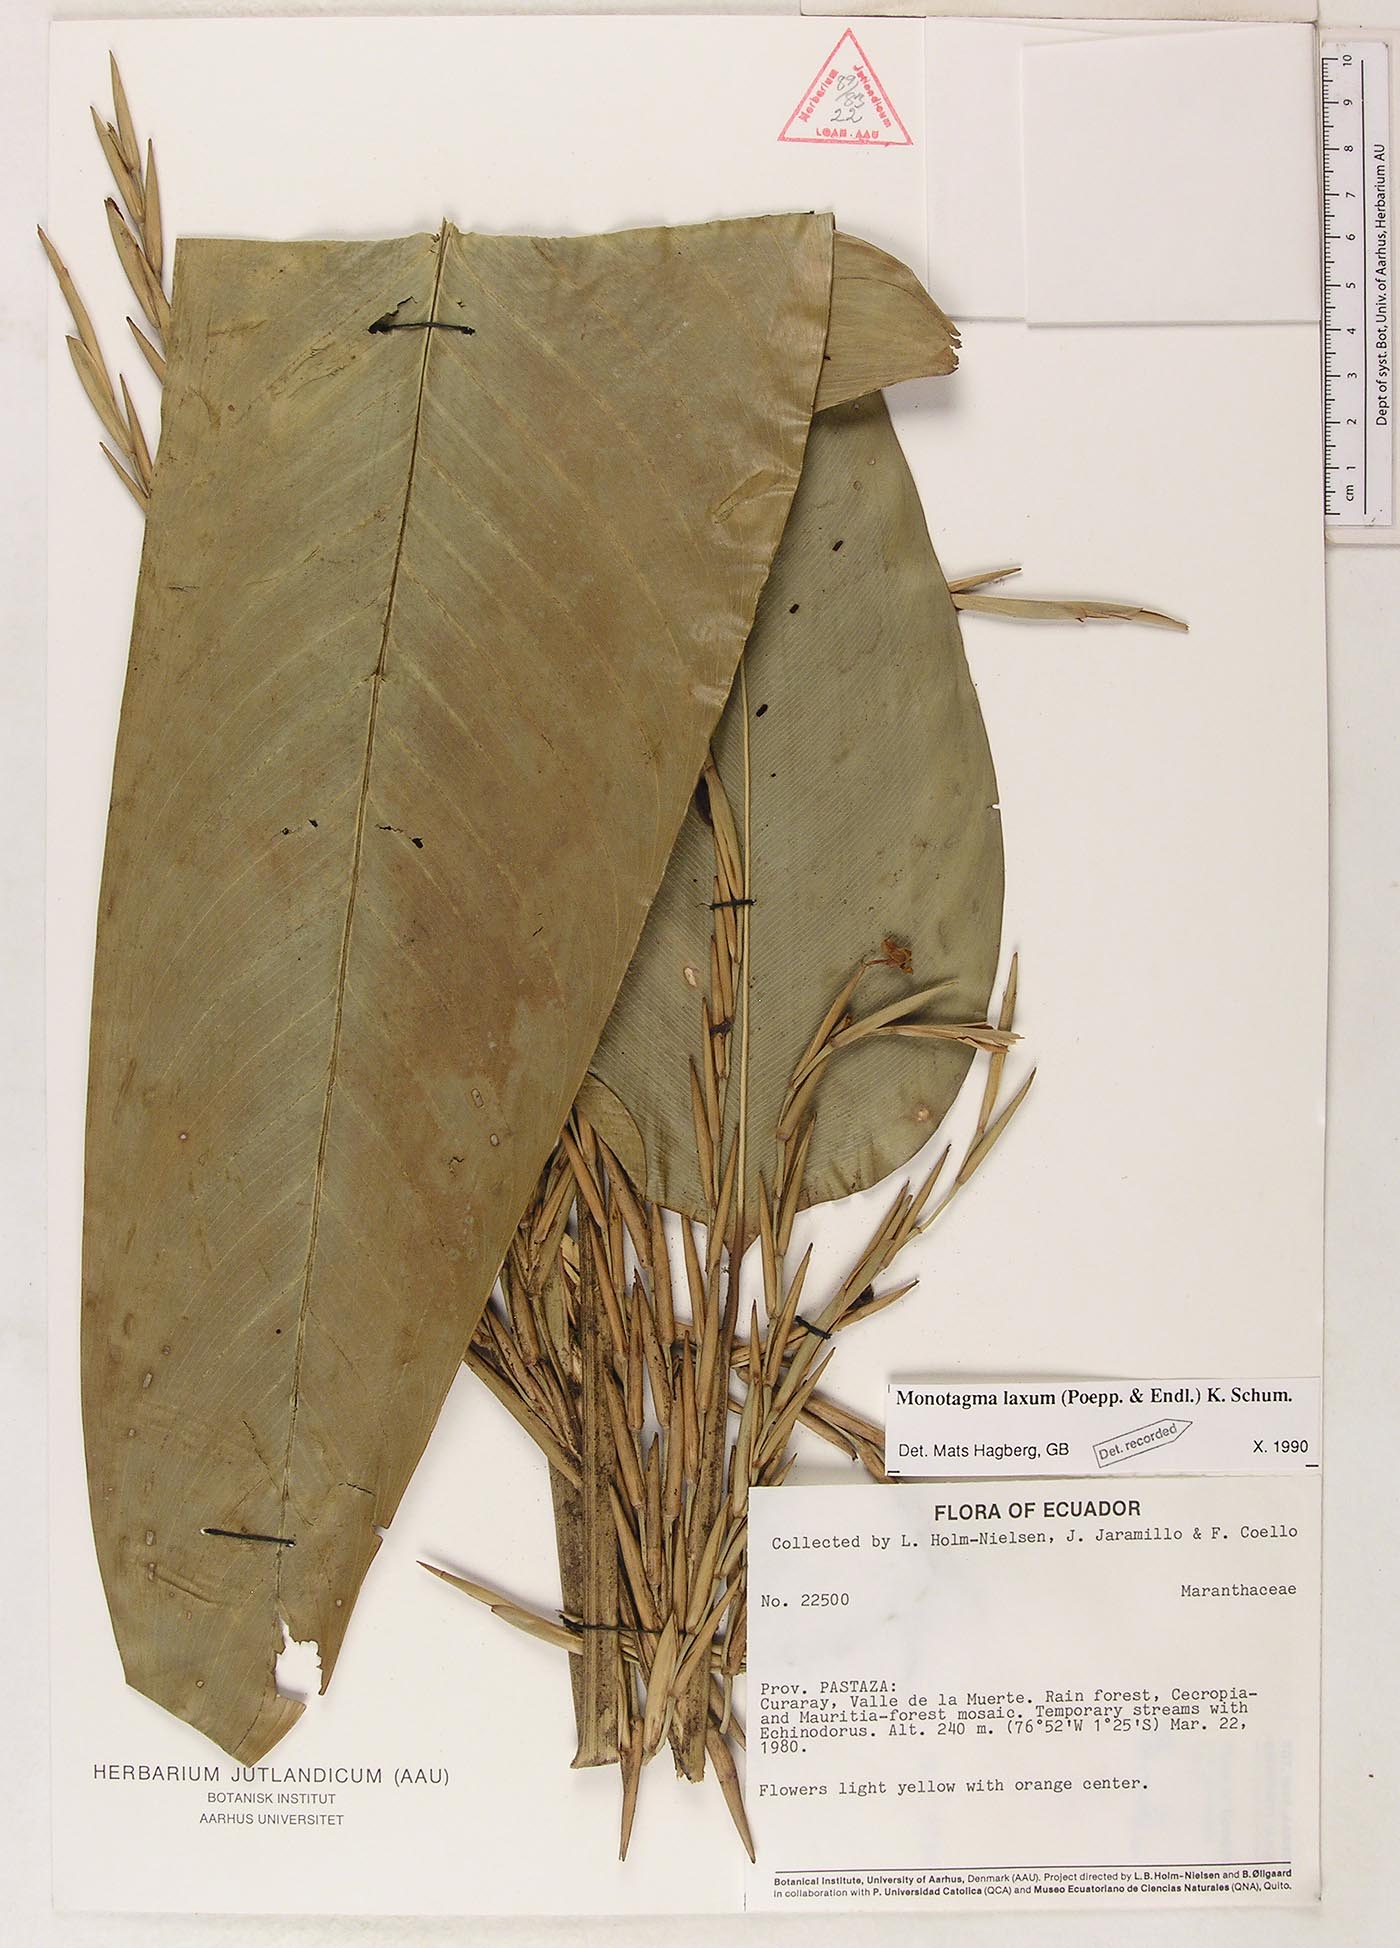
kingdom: Plantae
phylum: Tracheophyta
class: Liliopsida
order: Zingiberales
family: Marantaceae
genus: Monotagma
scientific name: Monotagma laxum
